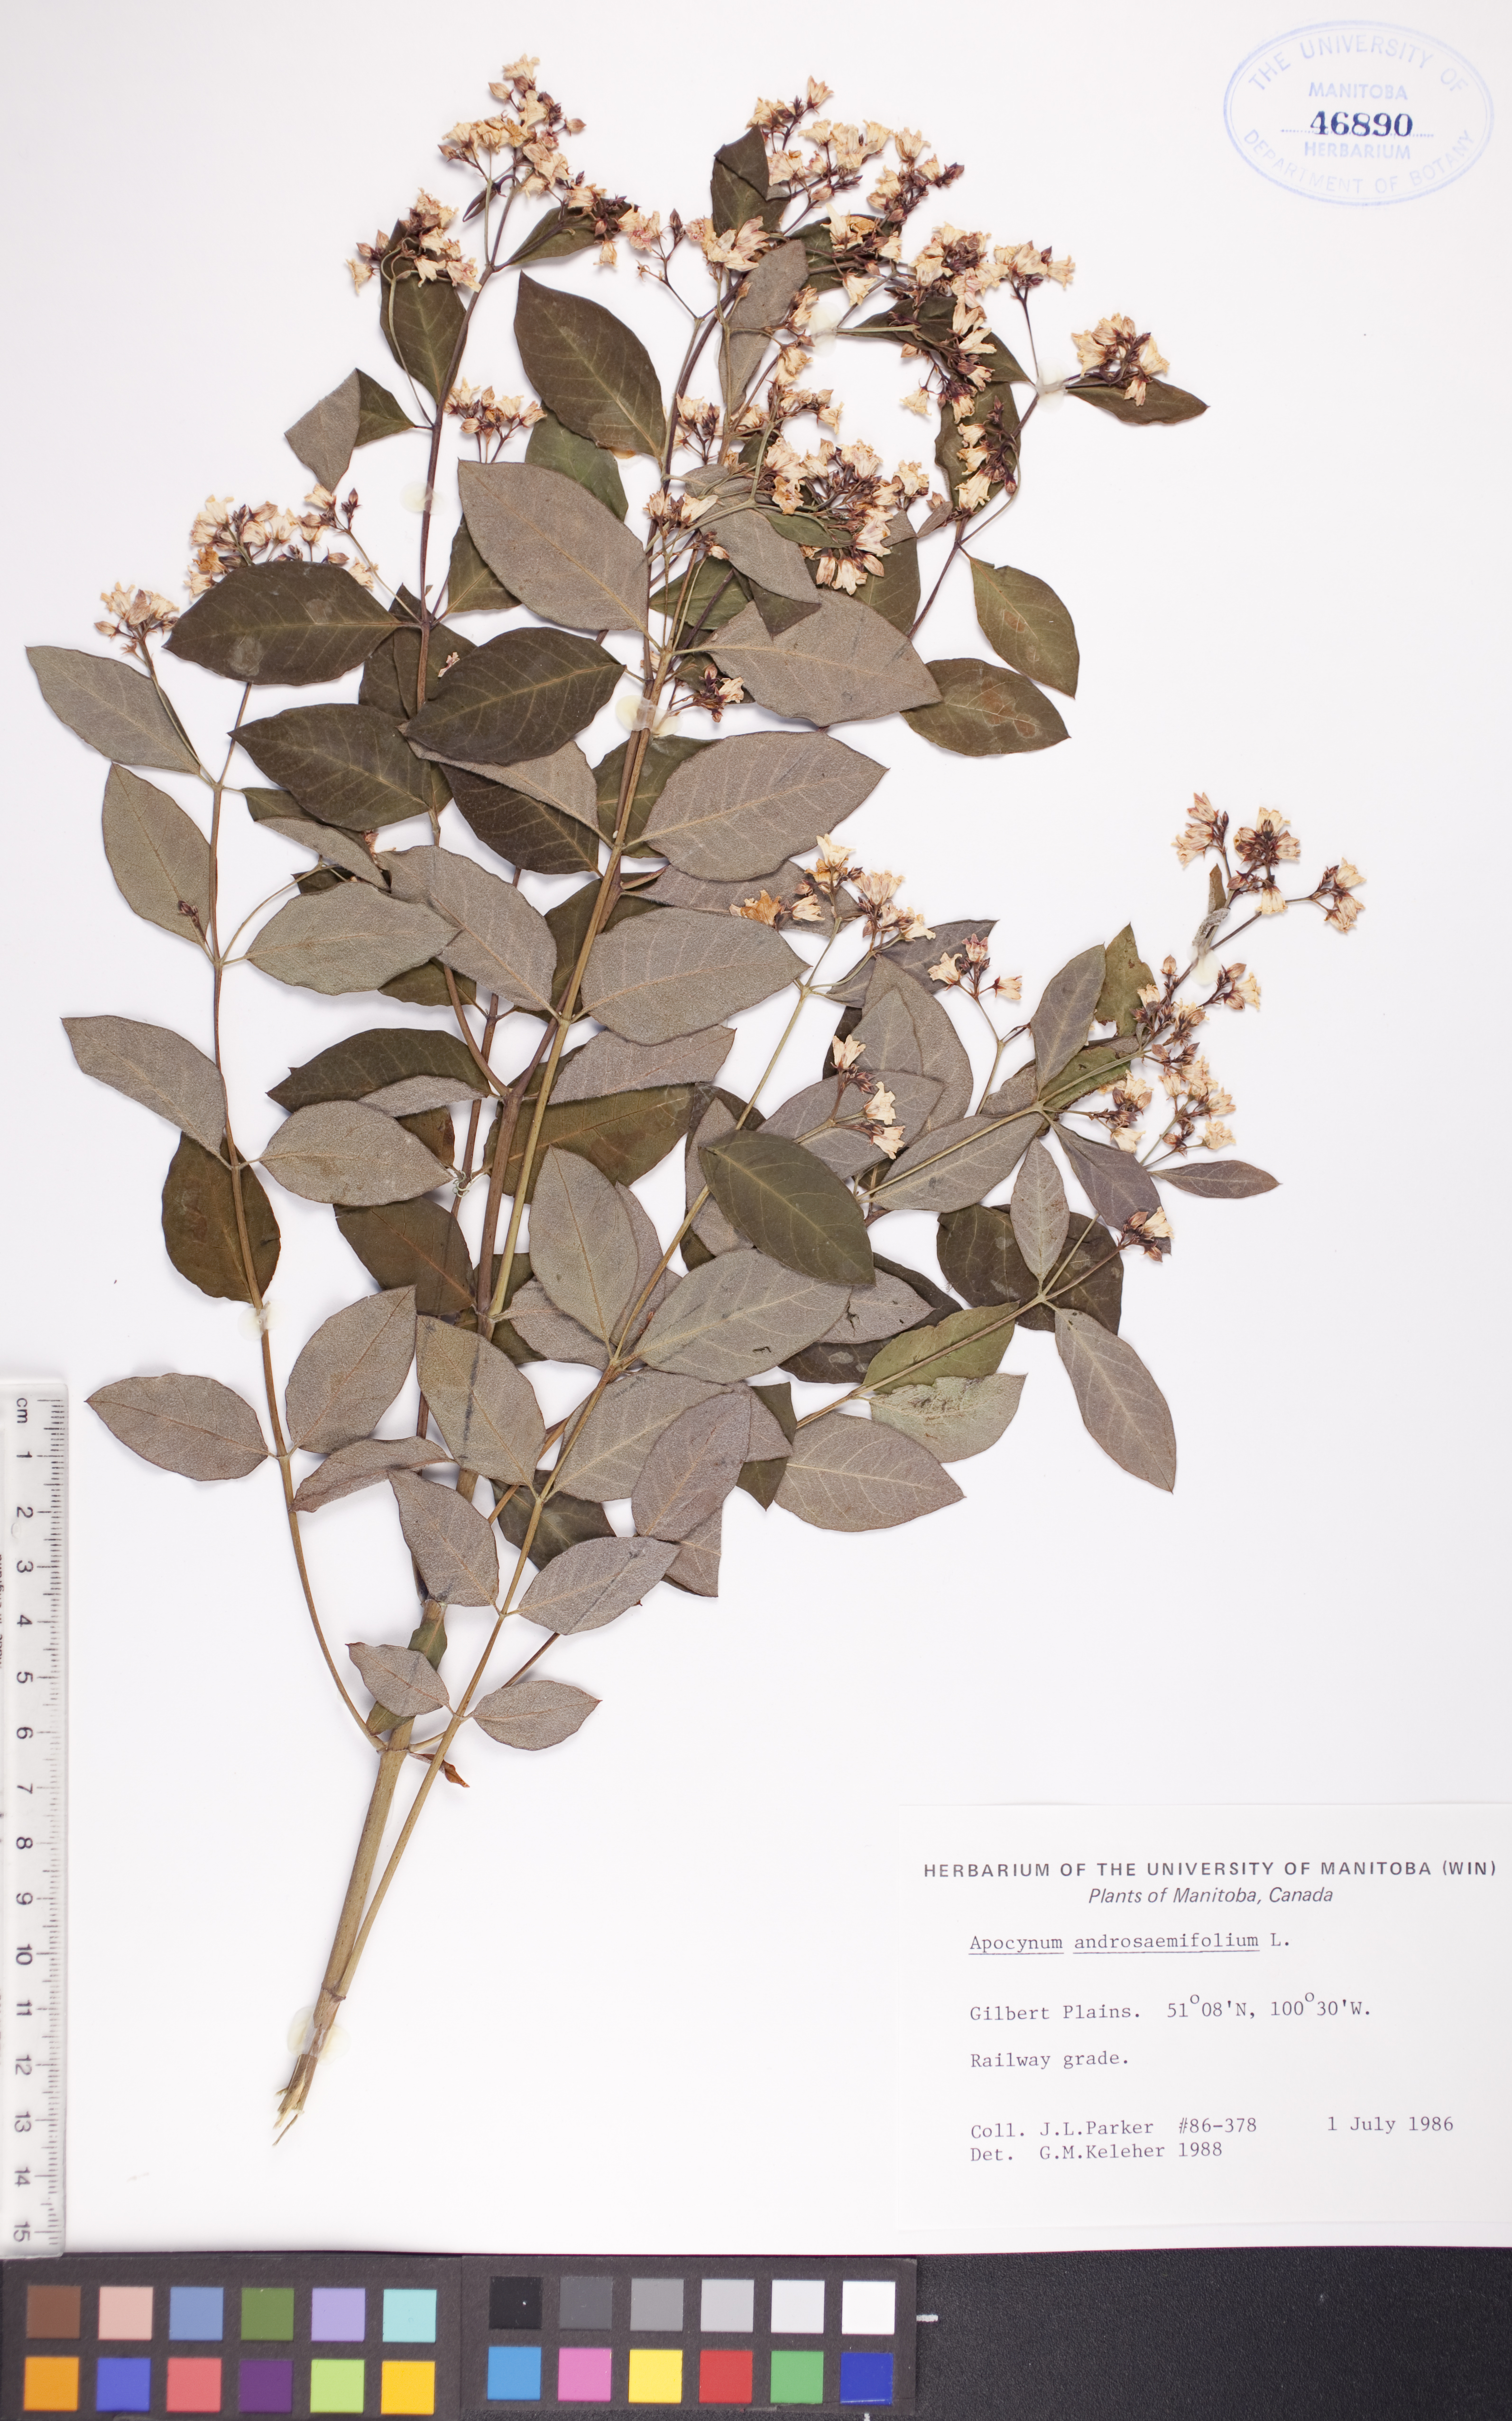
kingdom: Plantae
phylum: Tracheophyta
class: Magnoliopsida
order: Gentianales
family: Apocynaceae
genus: Apocynum
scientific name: Apocynum androsaemifolium
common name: Spreading dogbane
